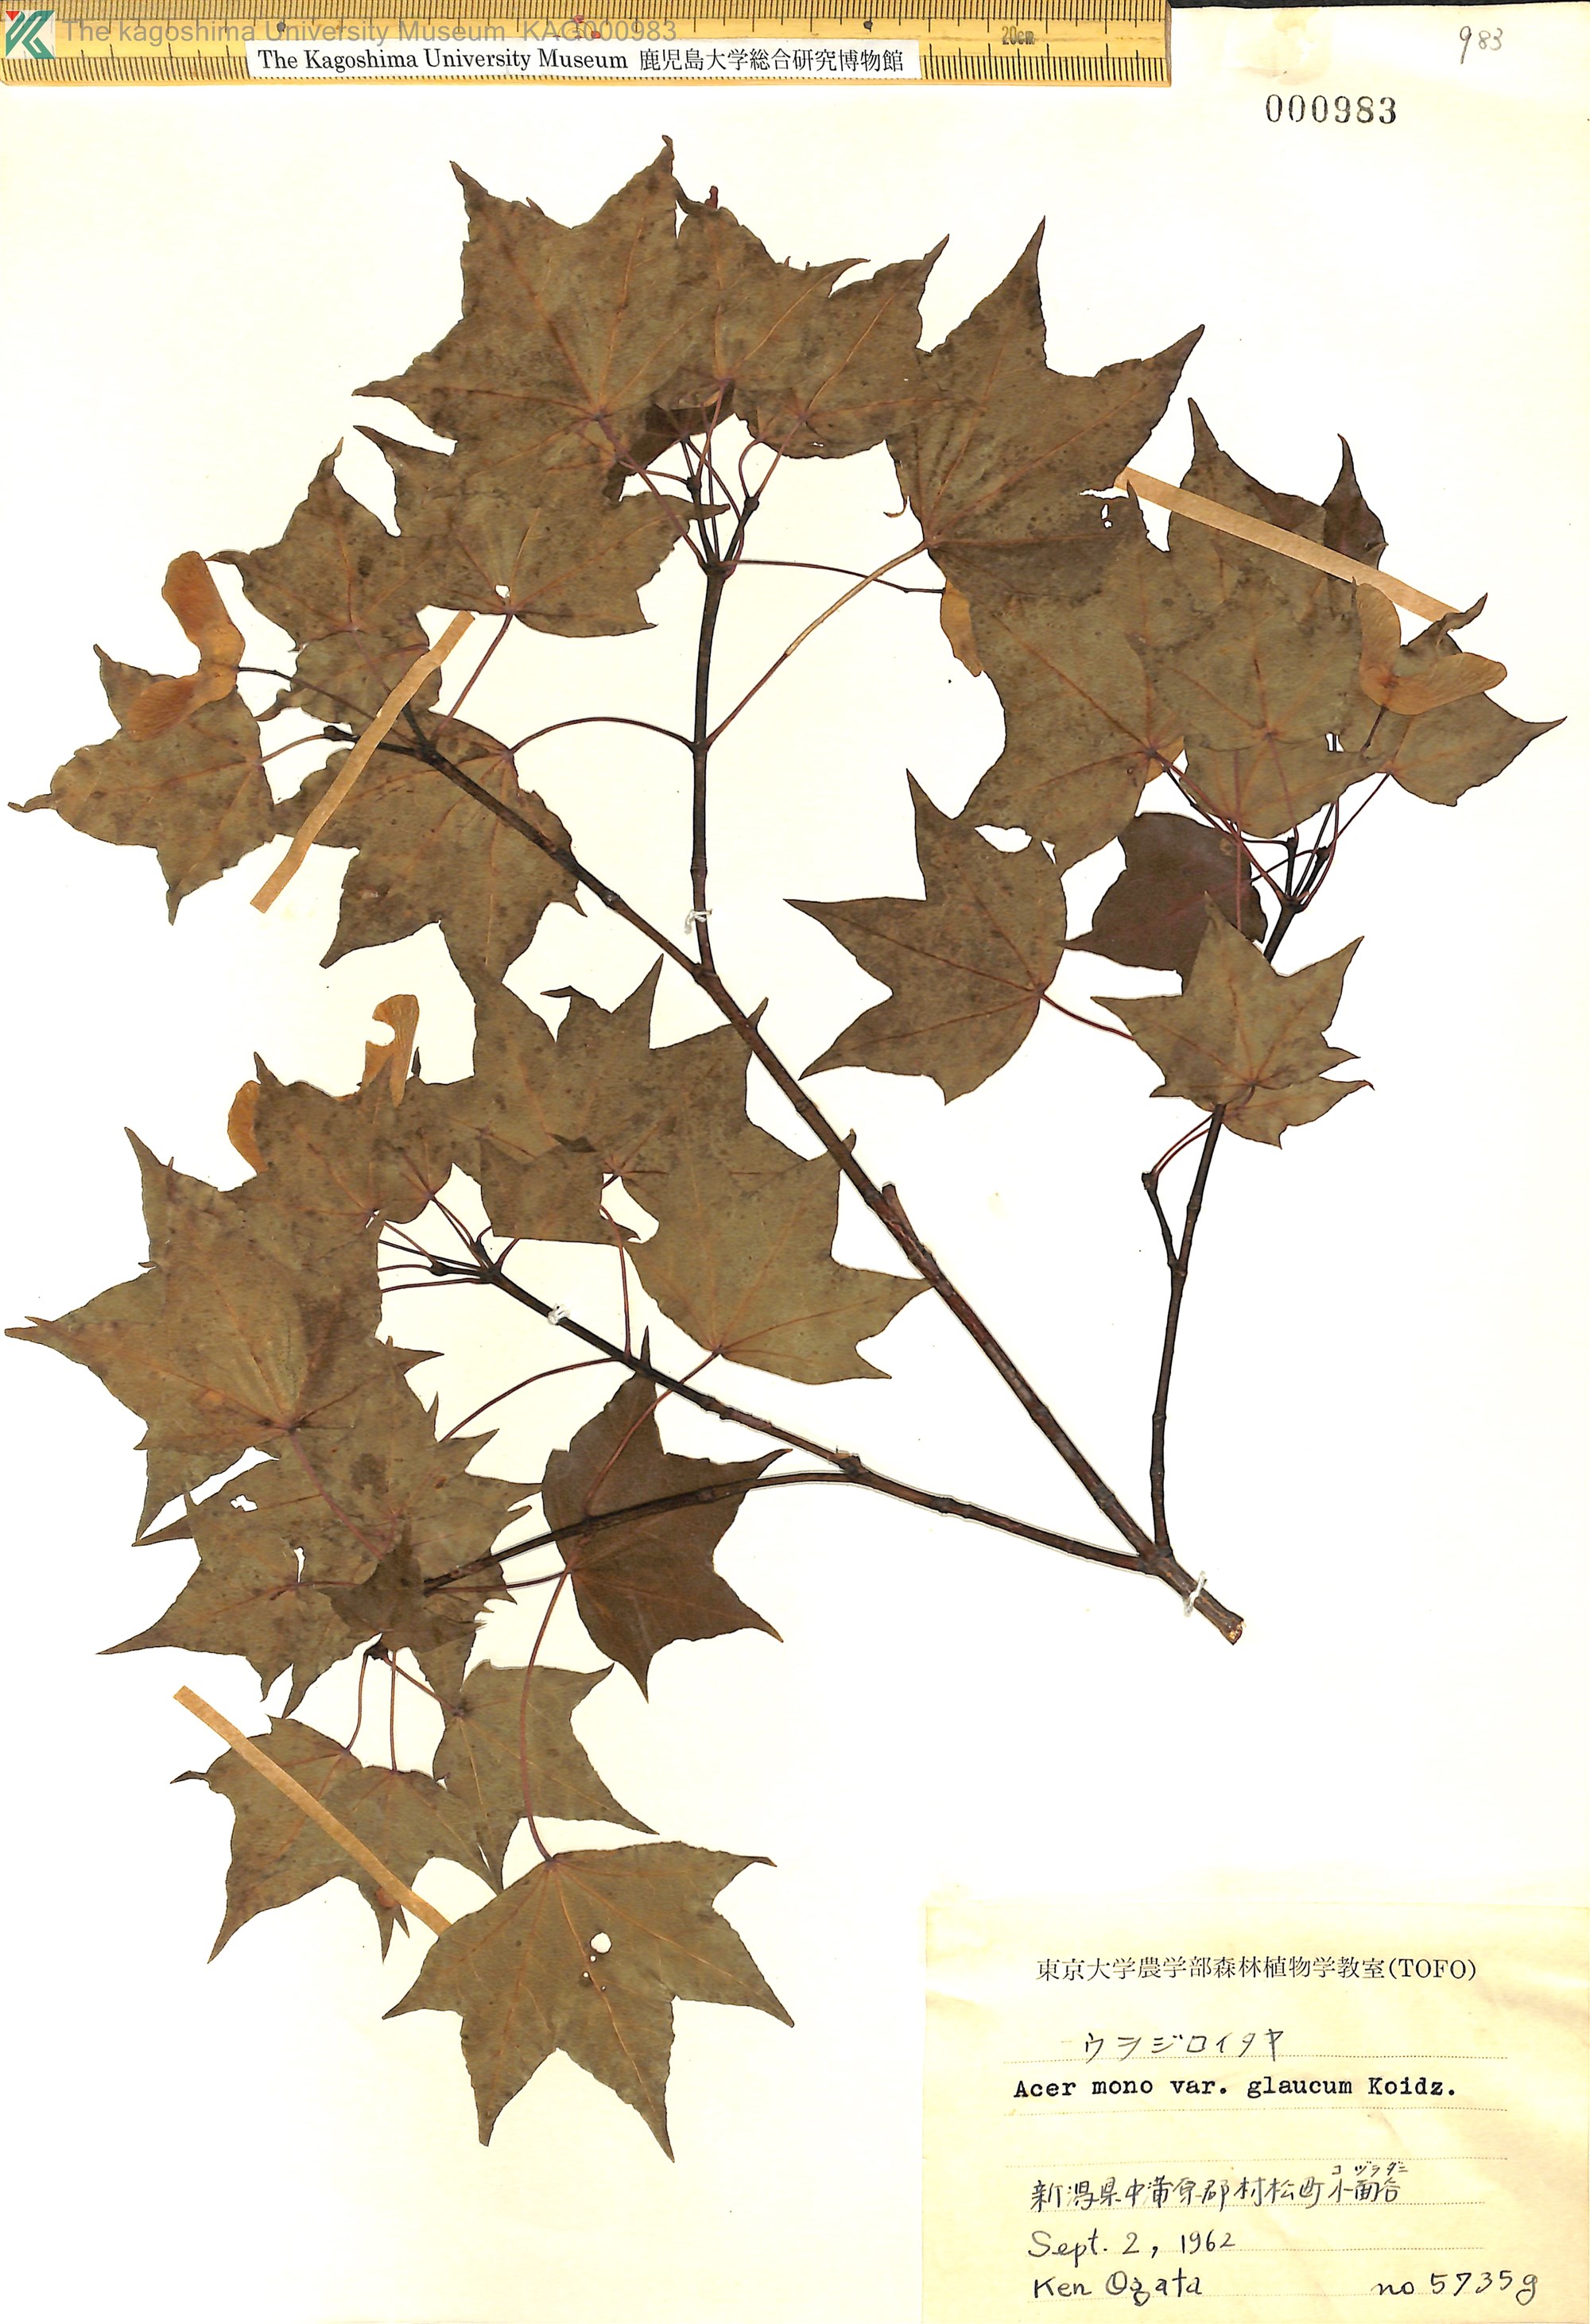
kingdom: Plantae
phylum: Tracheophyta
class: Magnoliopsida
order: Sapindales
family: Sapindaceae
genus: Acer
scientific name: Acer pictum
